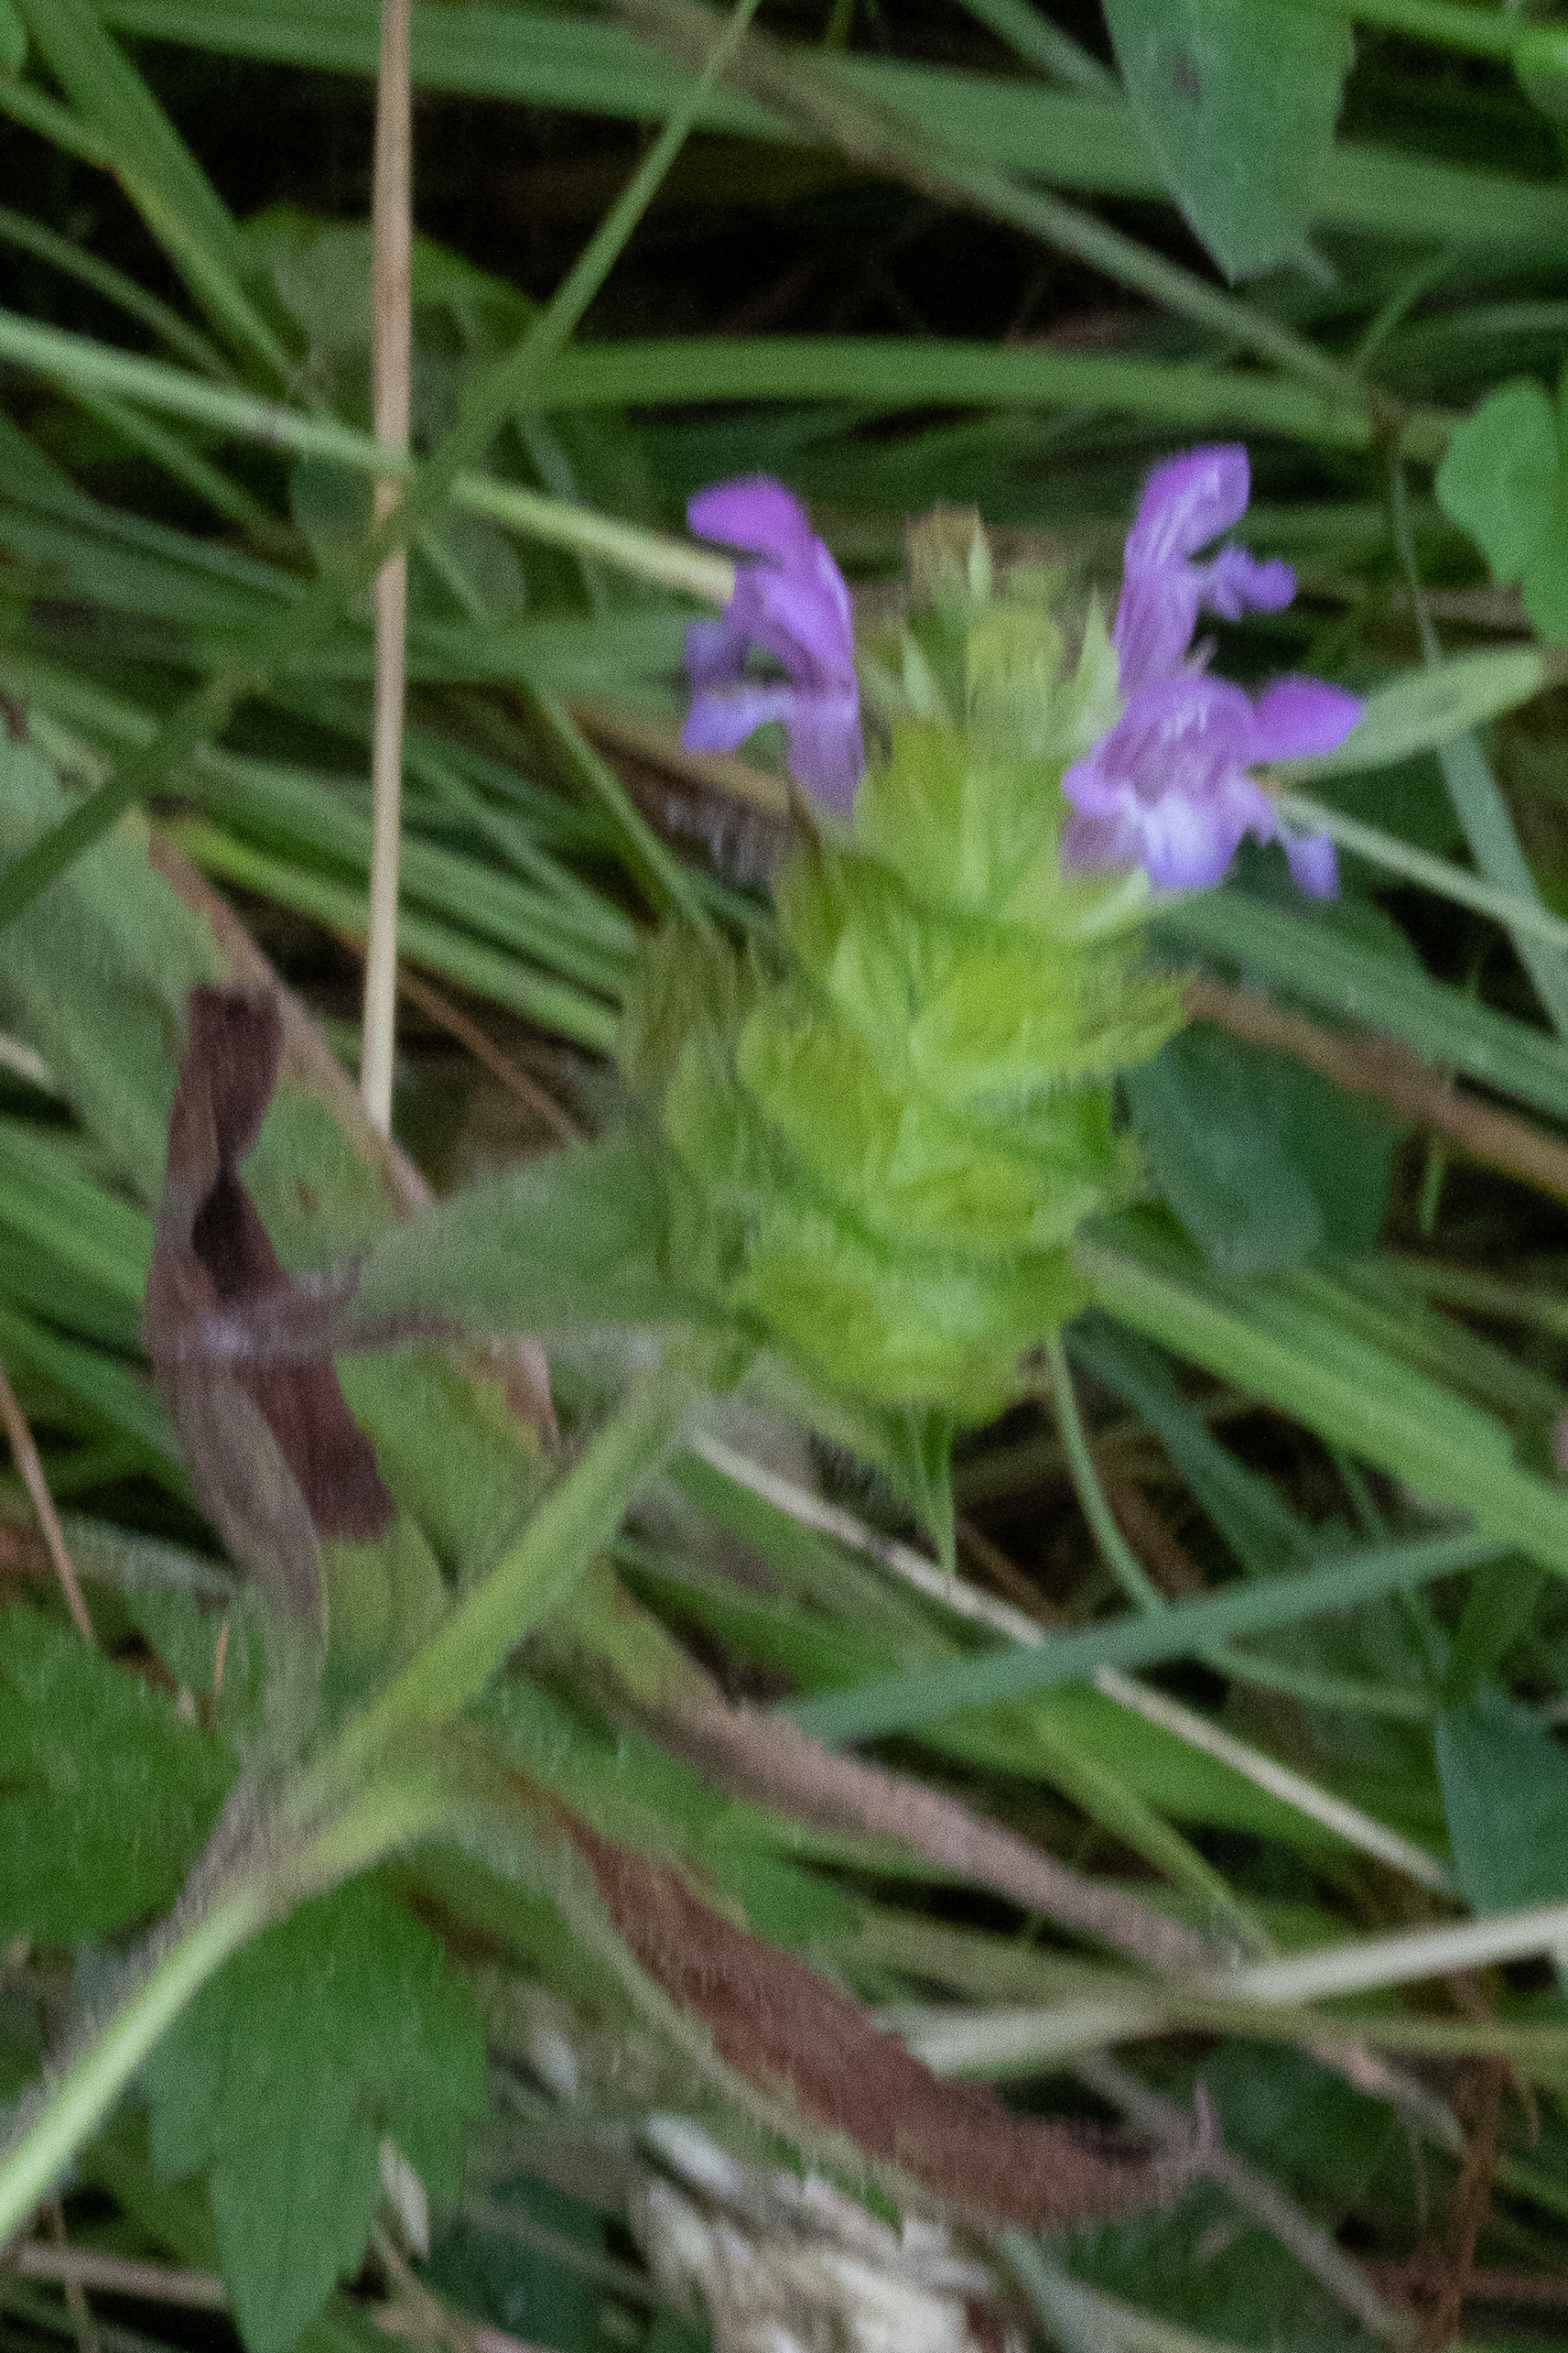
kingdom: Plantae
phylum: Tracheophyta
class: Magnoliopsida
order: Lamiales
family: Lamiaceae
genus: Prunella
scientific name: Prunella vulgaris
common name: Almindelig brunelle
